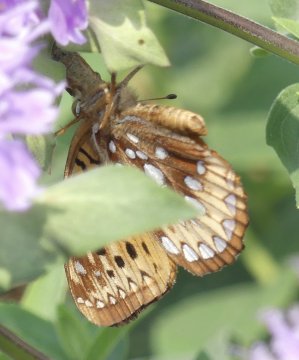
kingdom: Animalia
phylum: Arthropoda
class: Insecta
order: Lepidoptera
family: Nymphalidae
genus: Speyeria
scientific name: Speyeria cybele
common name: Great Spangled Fritillary
